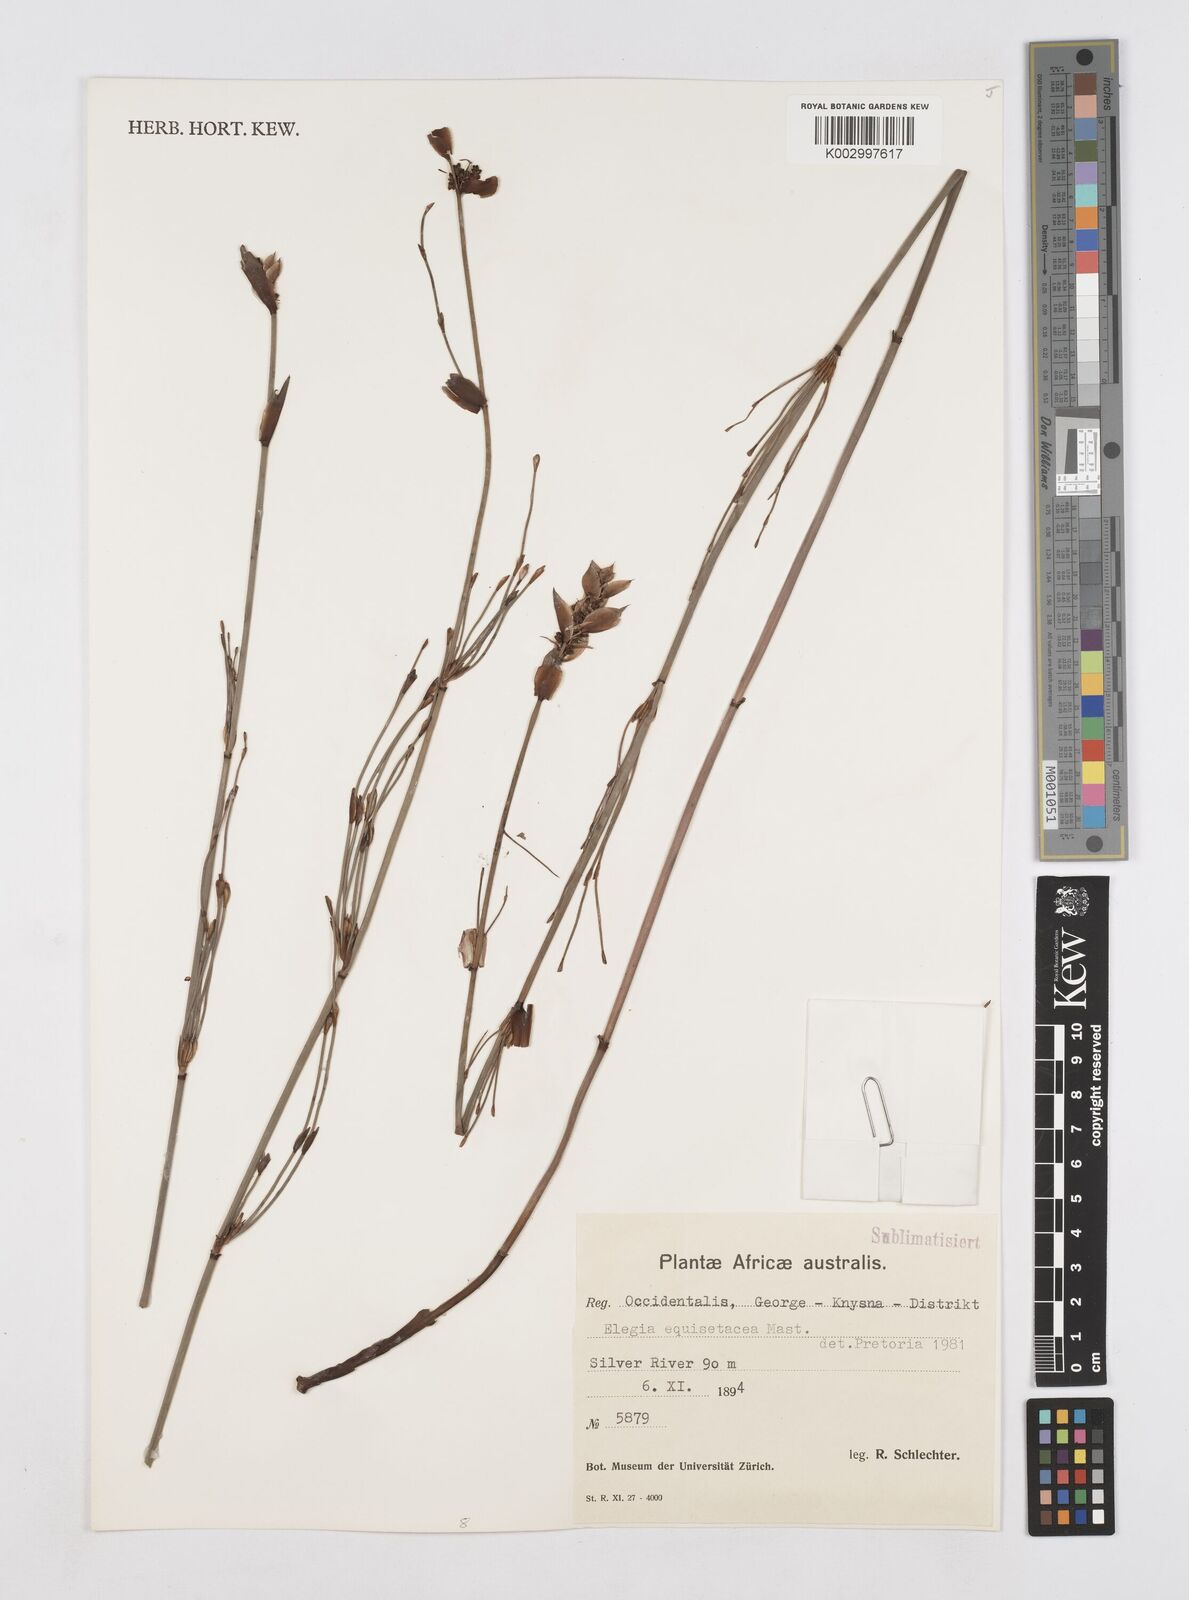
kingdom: Plantae
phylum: Tracheophyta
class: Liliopsida
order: Poales
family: Restionaceae
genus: Elegia
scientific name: Elegia equisetacea
